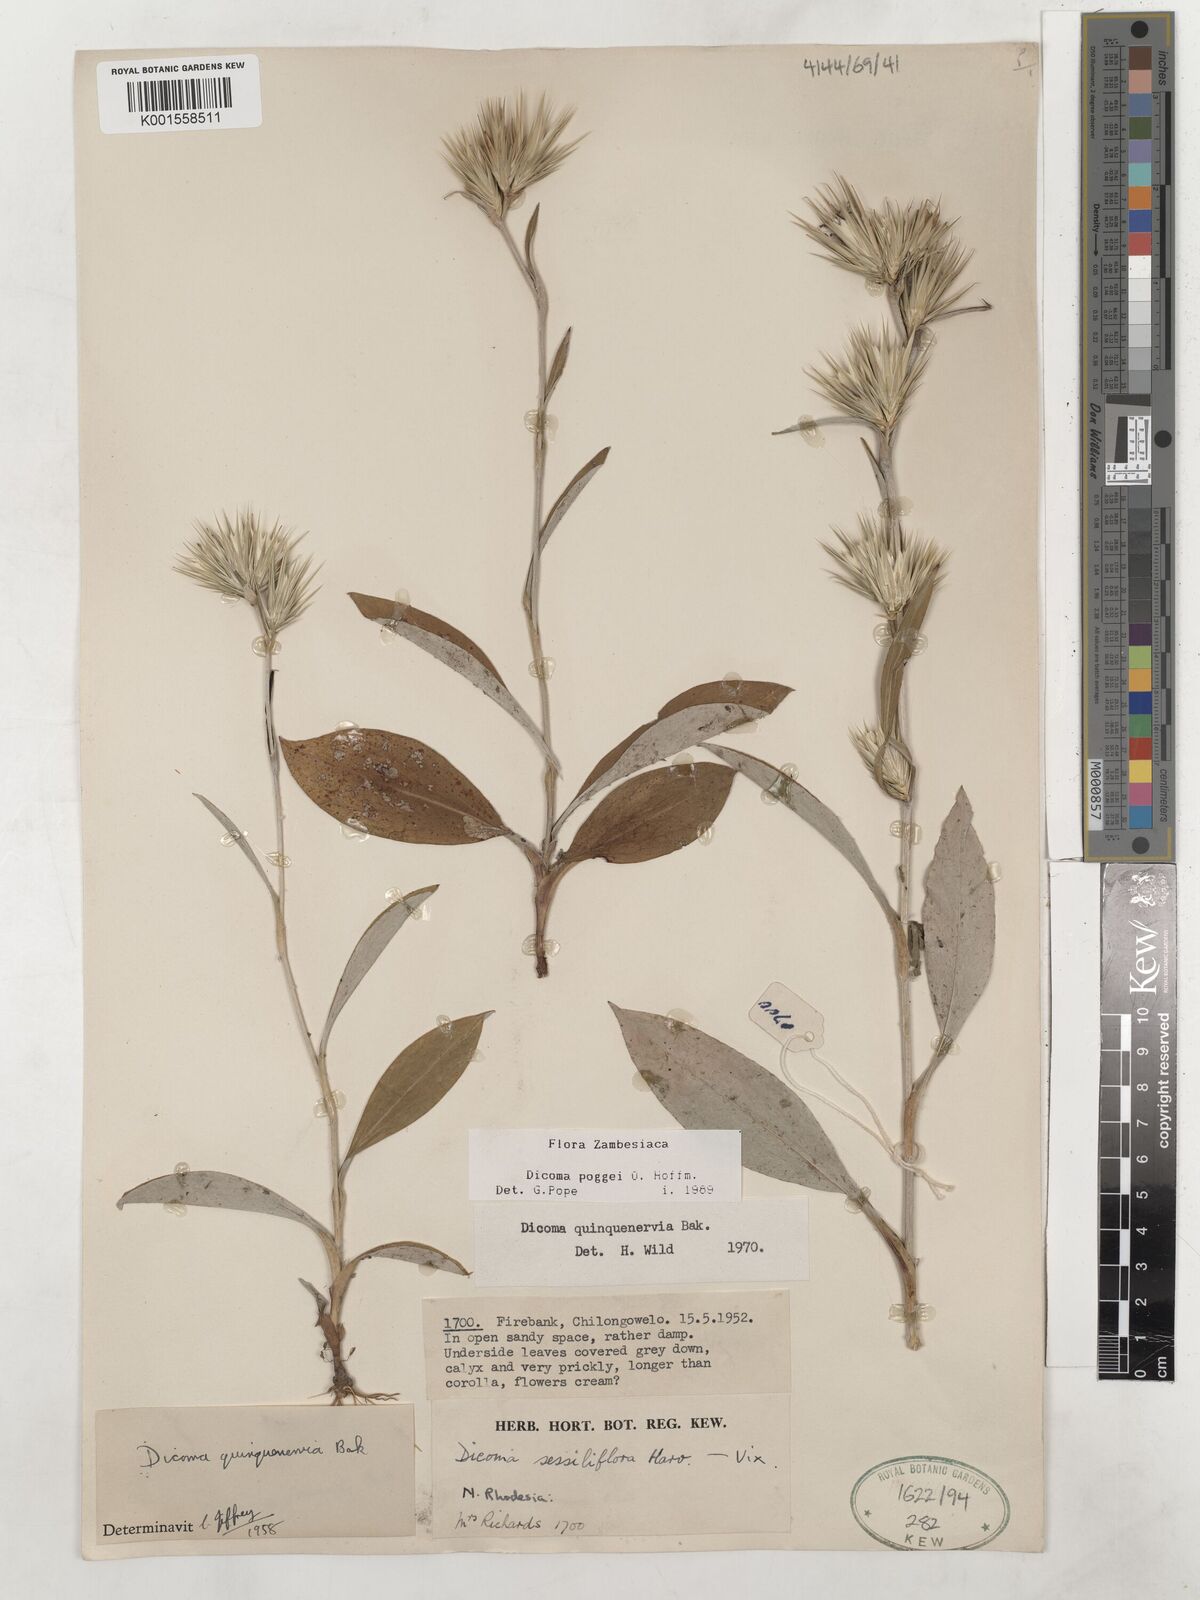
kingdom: Plantae
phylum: Tracheophyta
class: Magnoliopsida
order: Asterales
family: Asteraceae
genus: Macledium
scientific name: Macledium poggei
